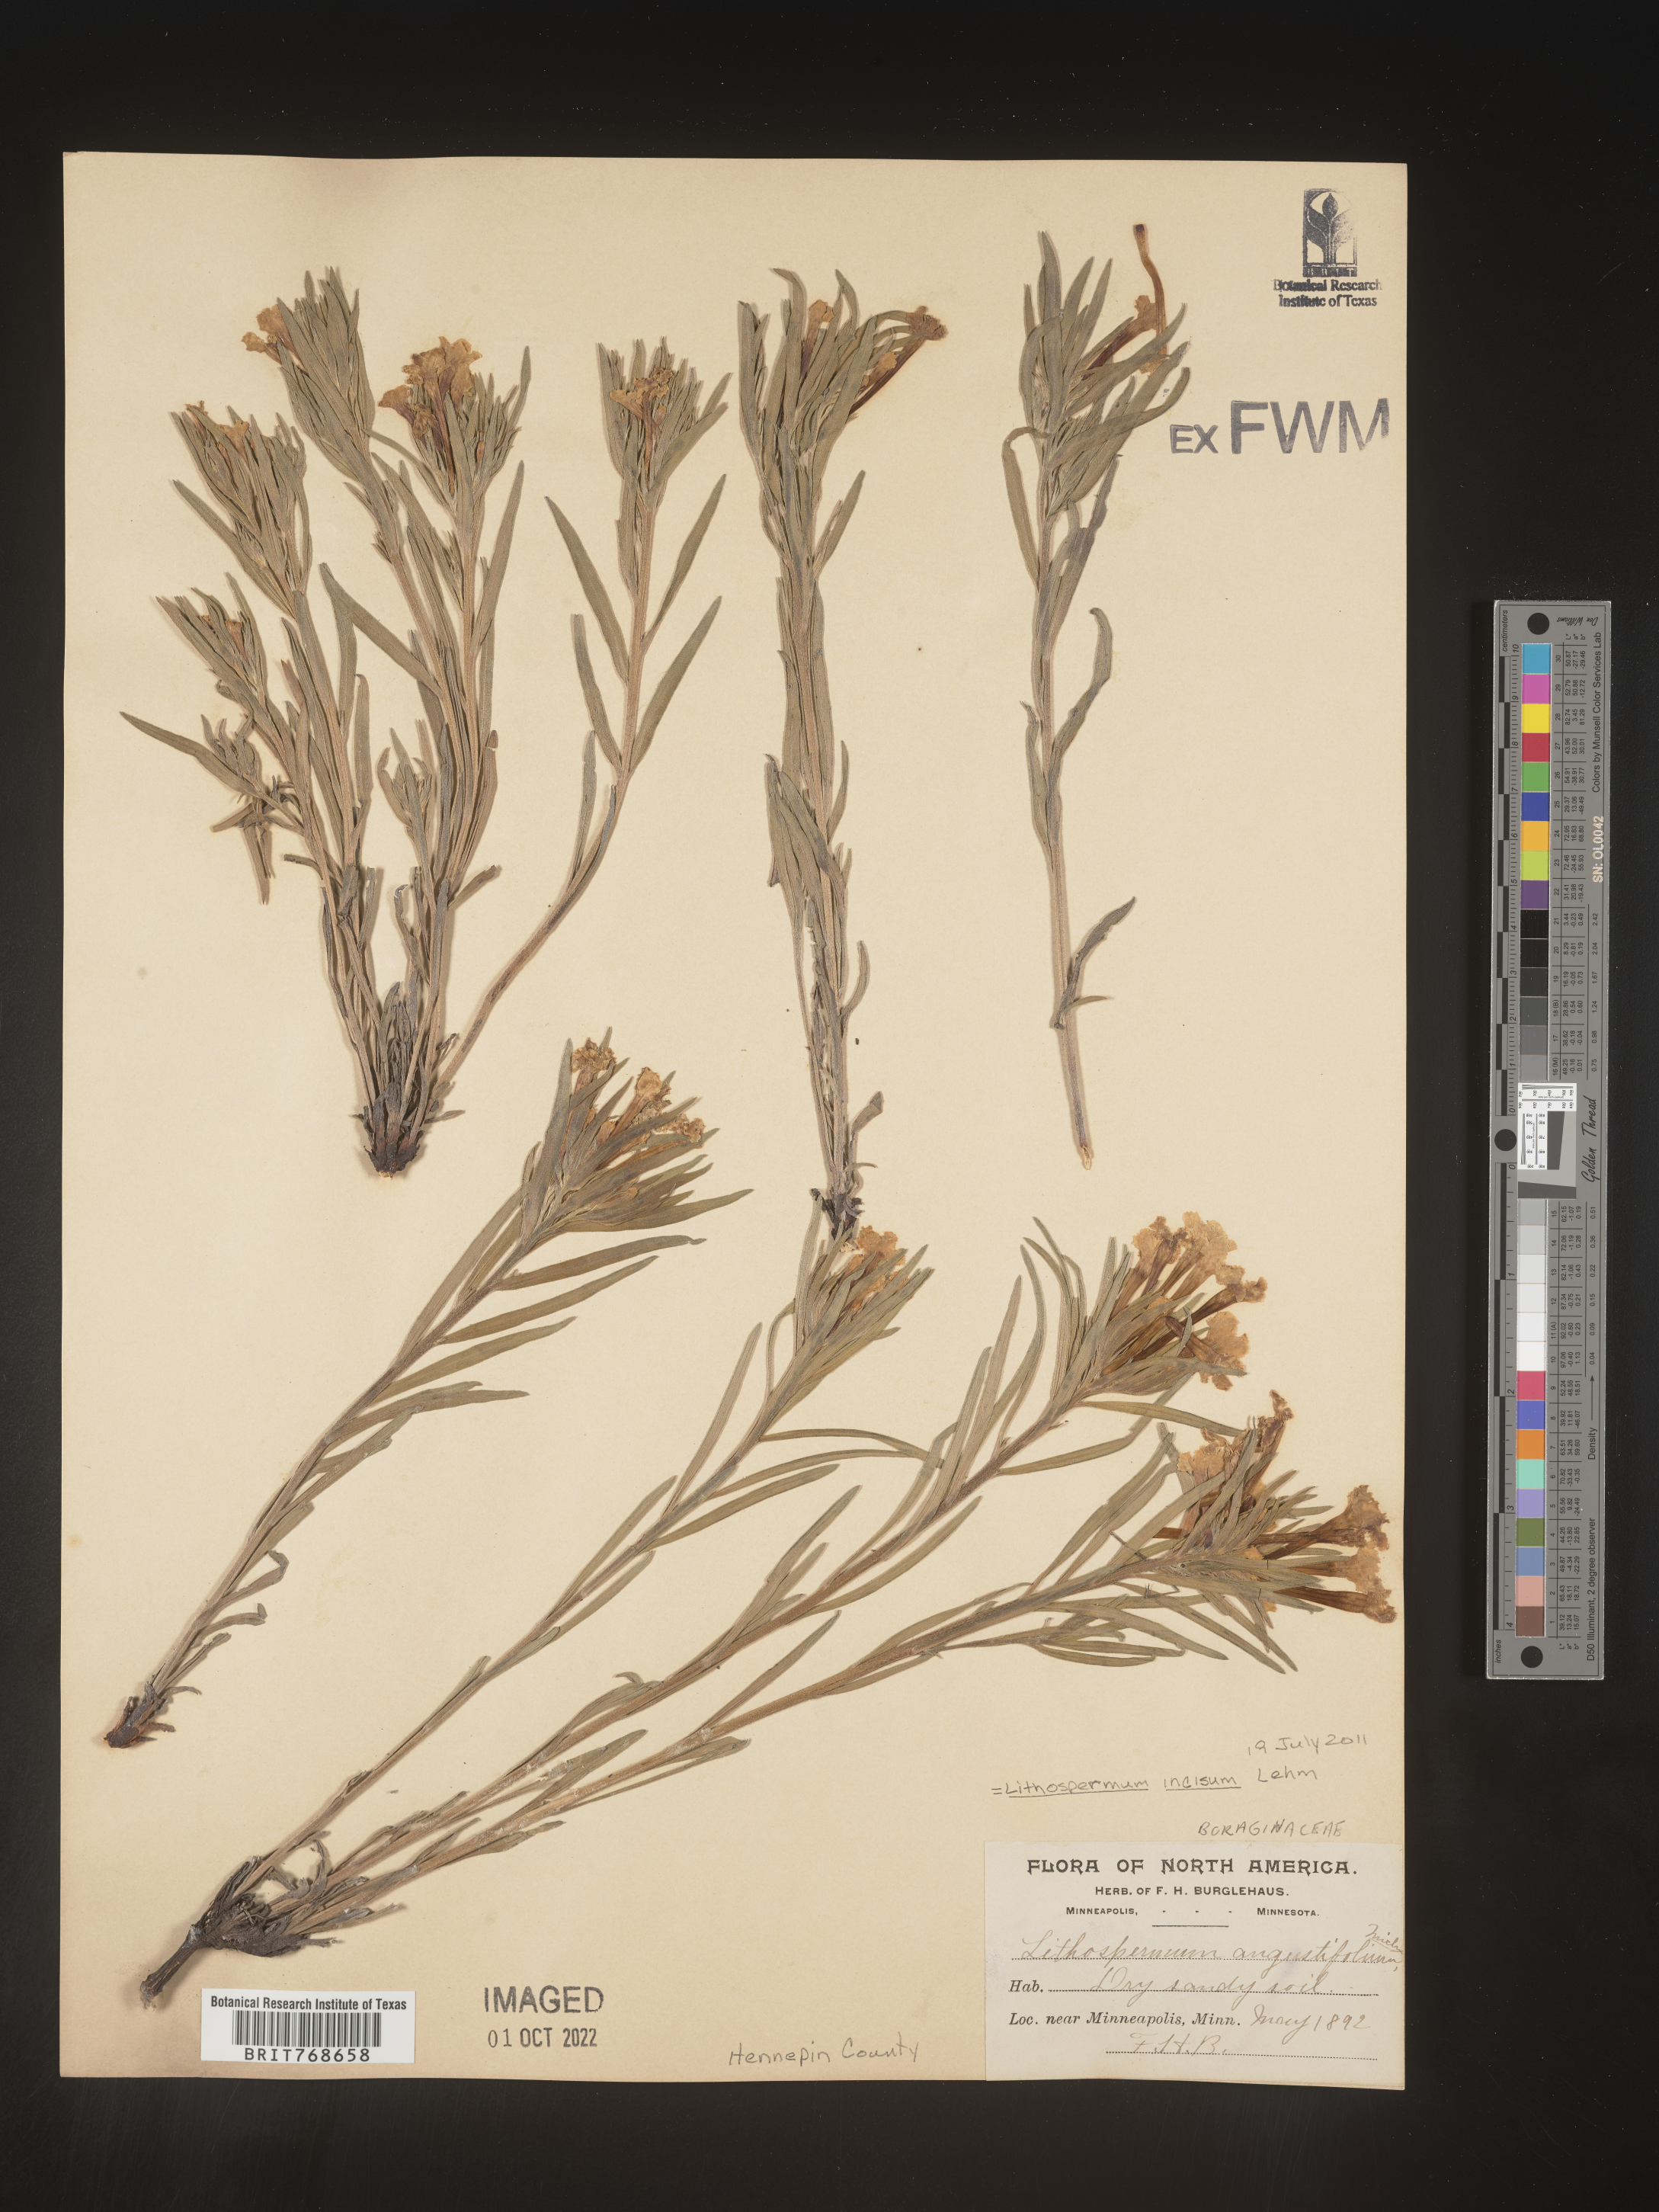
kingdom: Plantae
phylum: Tracheophyta
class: Magnoliopsida
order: Boraginales
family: Boraginaceae
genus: Lithospermum
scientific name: Lithospermum incisum
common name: Fringed gromwell
